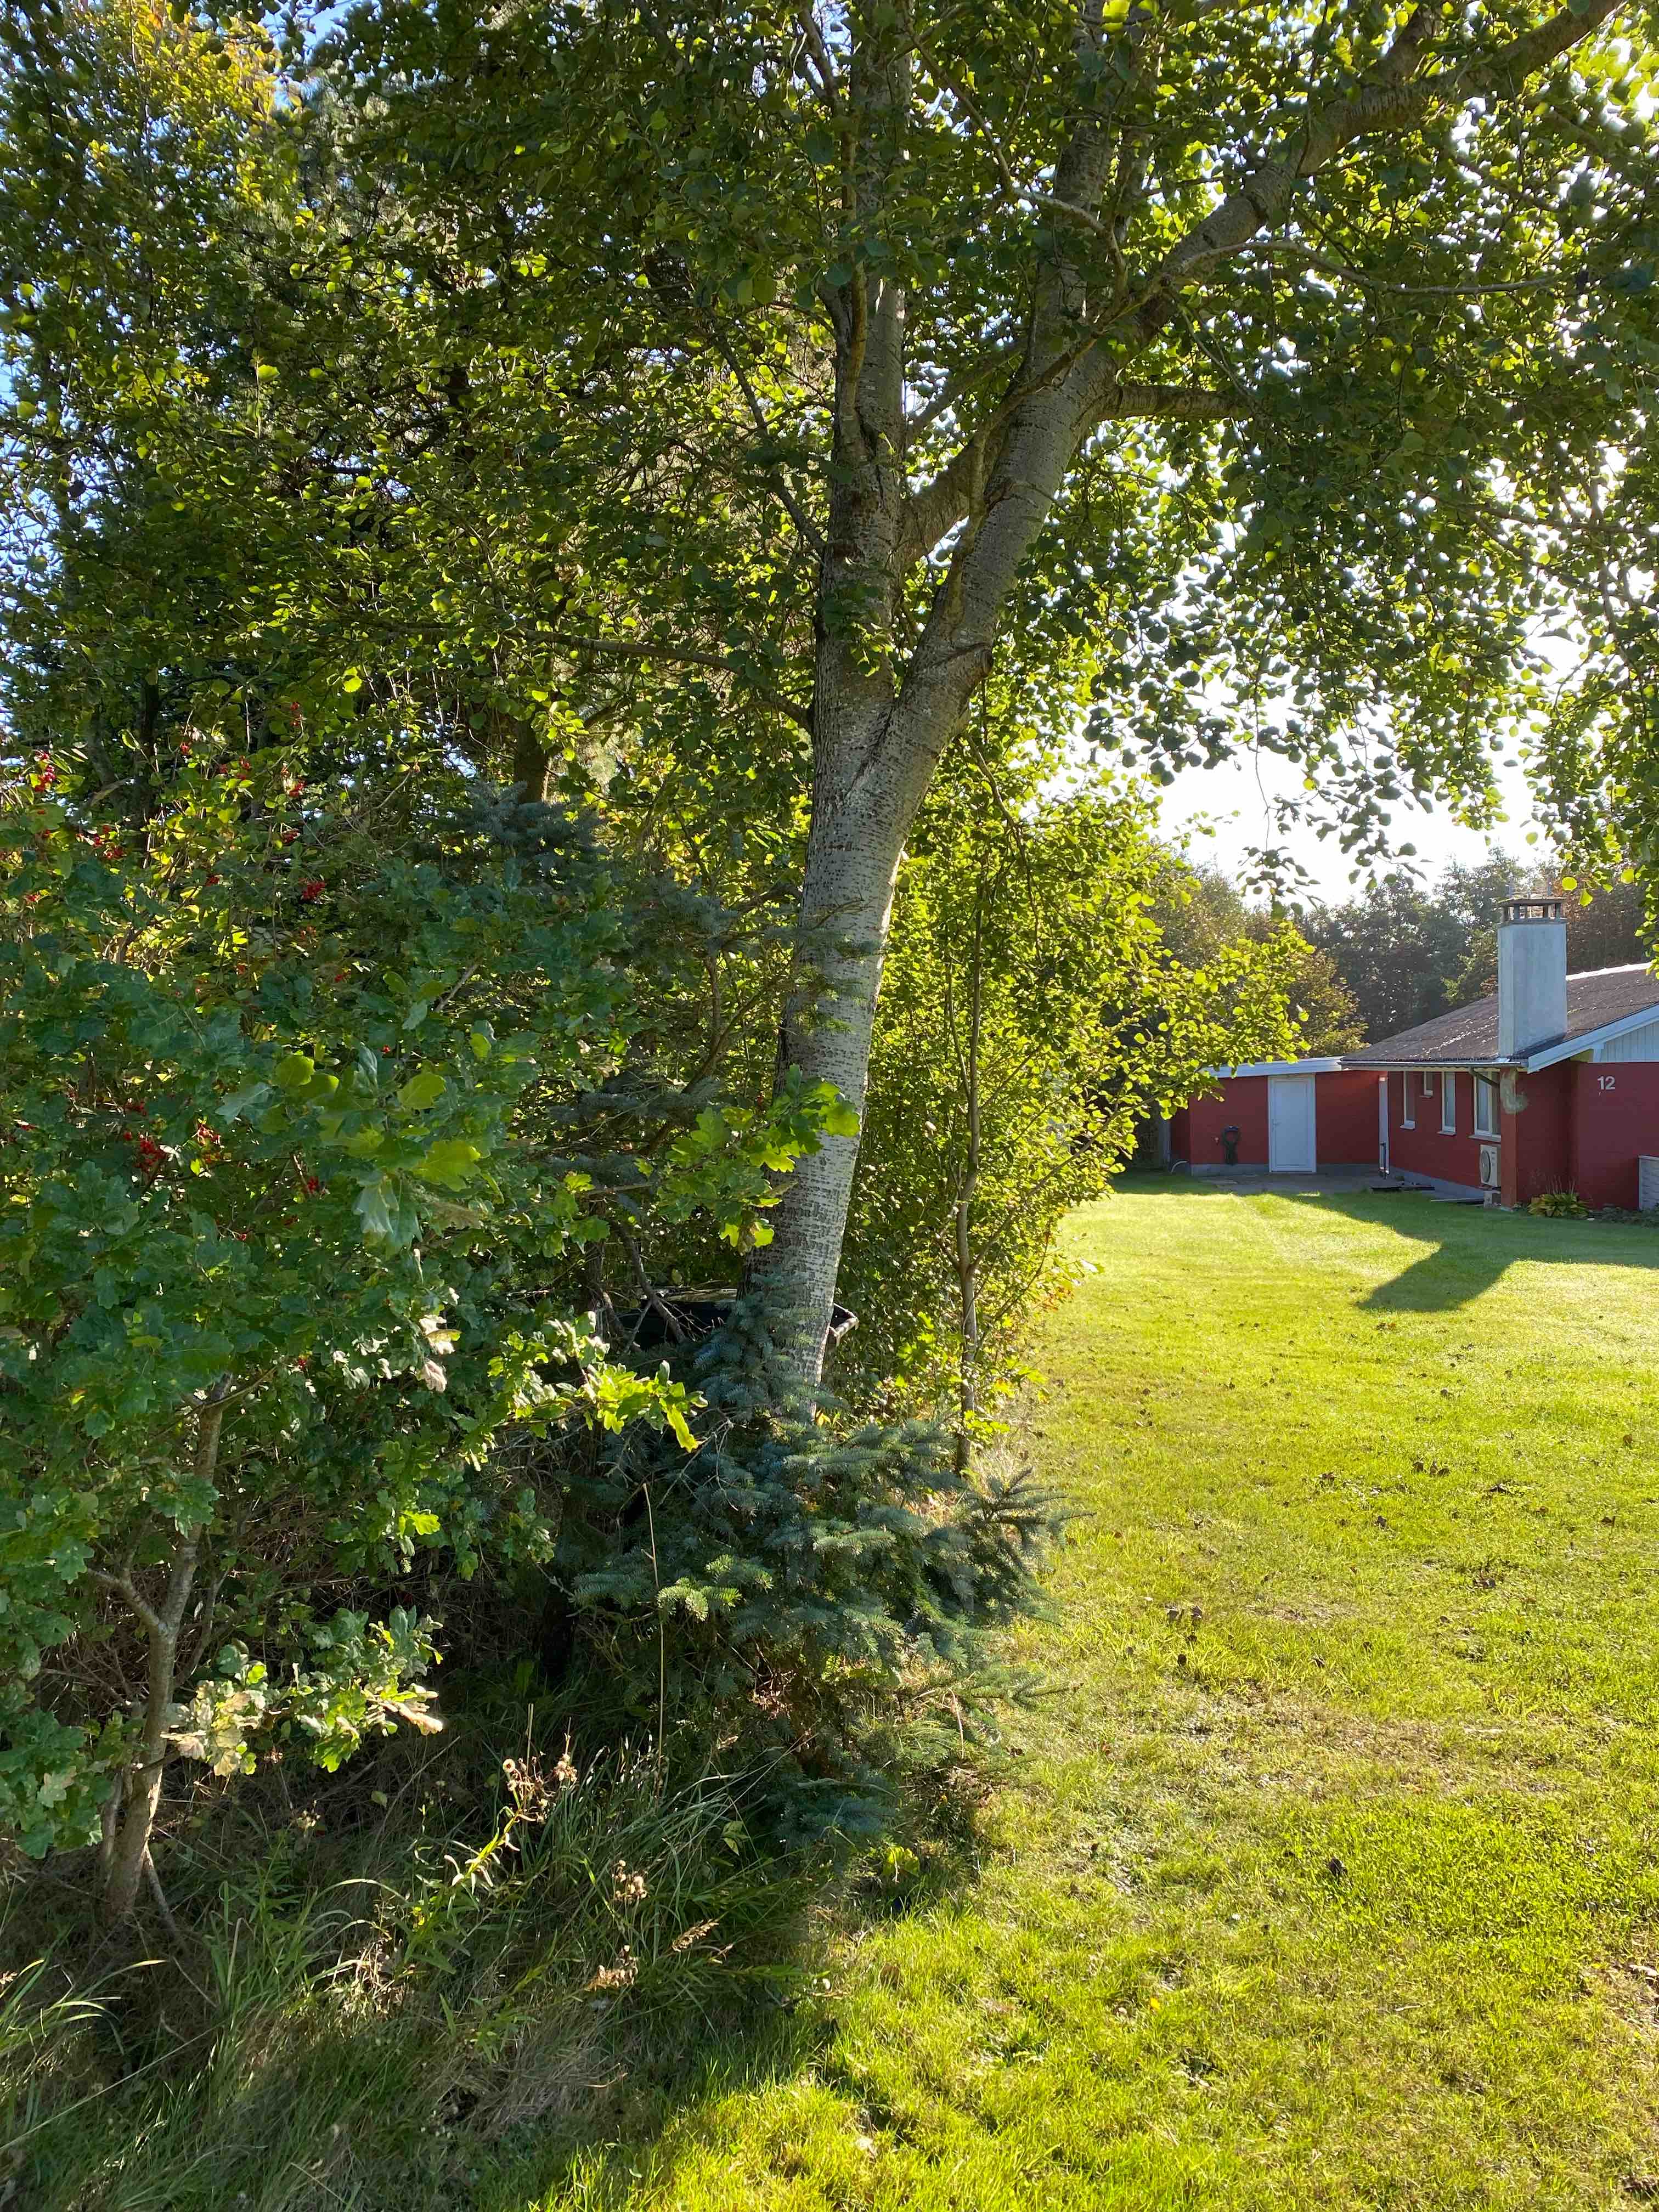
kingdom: Fungi
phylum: Basidiomycota
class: Agaricomycetes
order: Boletales
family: Boletaceae
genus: Leccinum
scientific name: Leccinum albostipitatum
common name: aspe-skælrørhat
